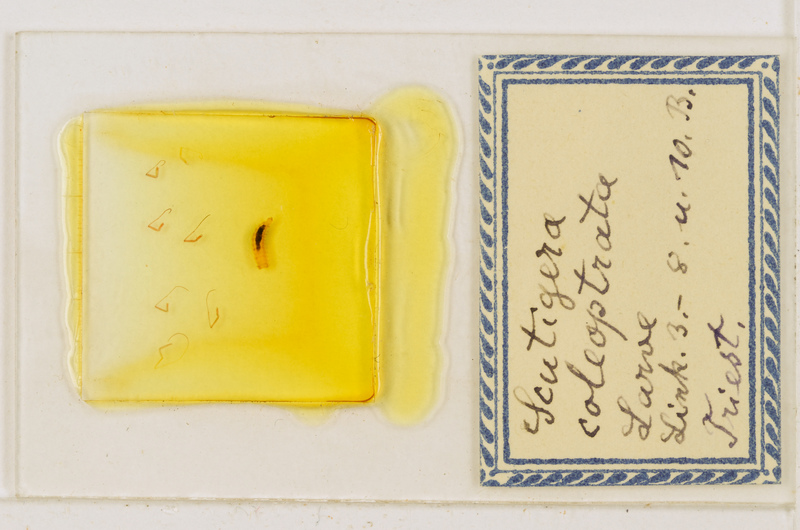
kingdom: Animalia
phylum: Arthropoda
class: Chilopoda
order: Scutigeromorpha
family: Scutigeridae
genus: Scutigera
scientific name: Scutigera coleoptrata
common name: House centipede
